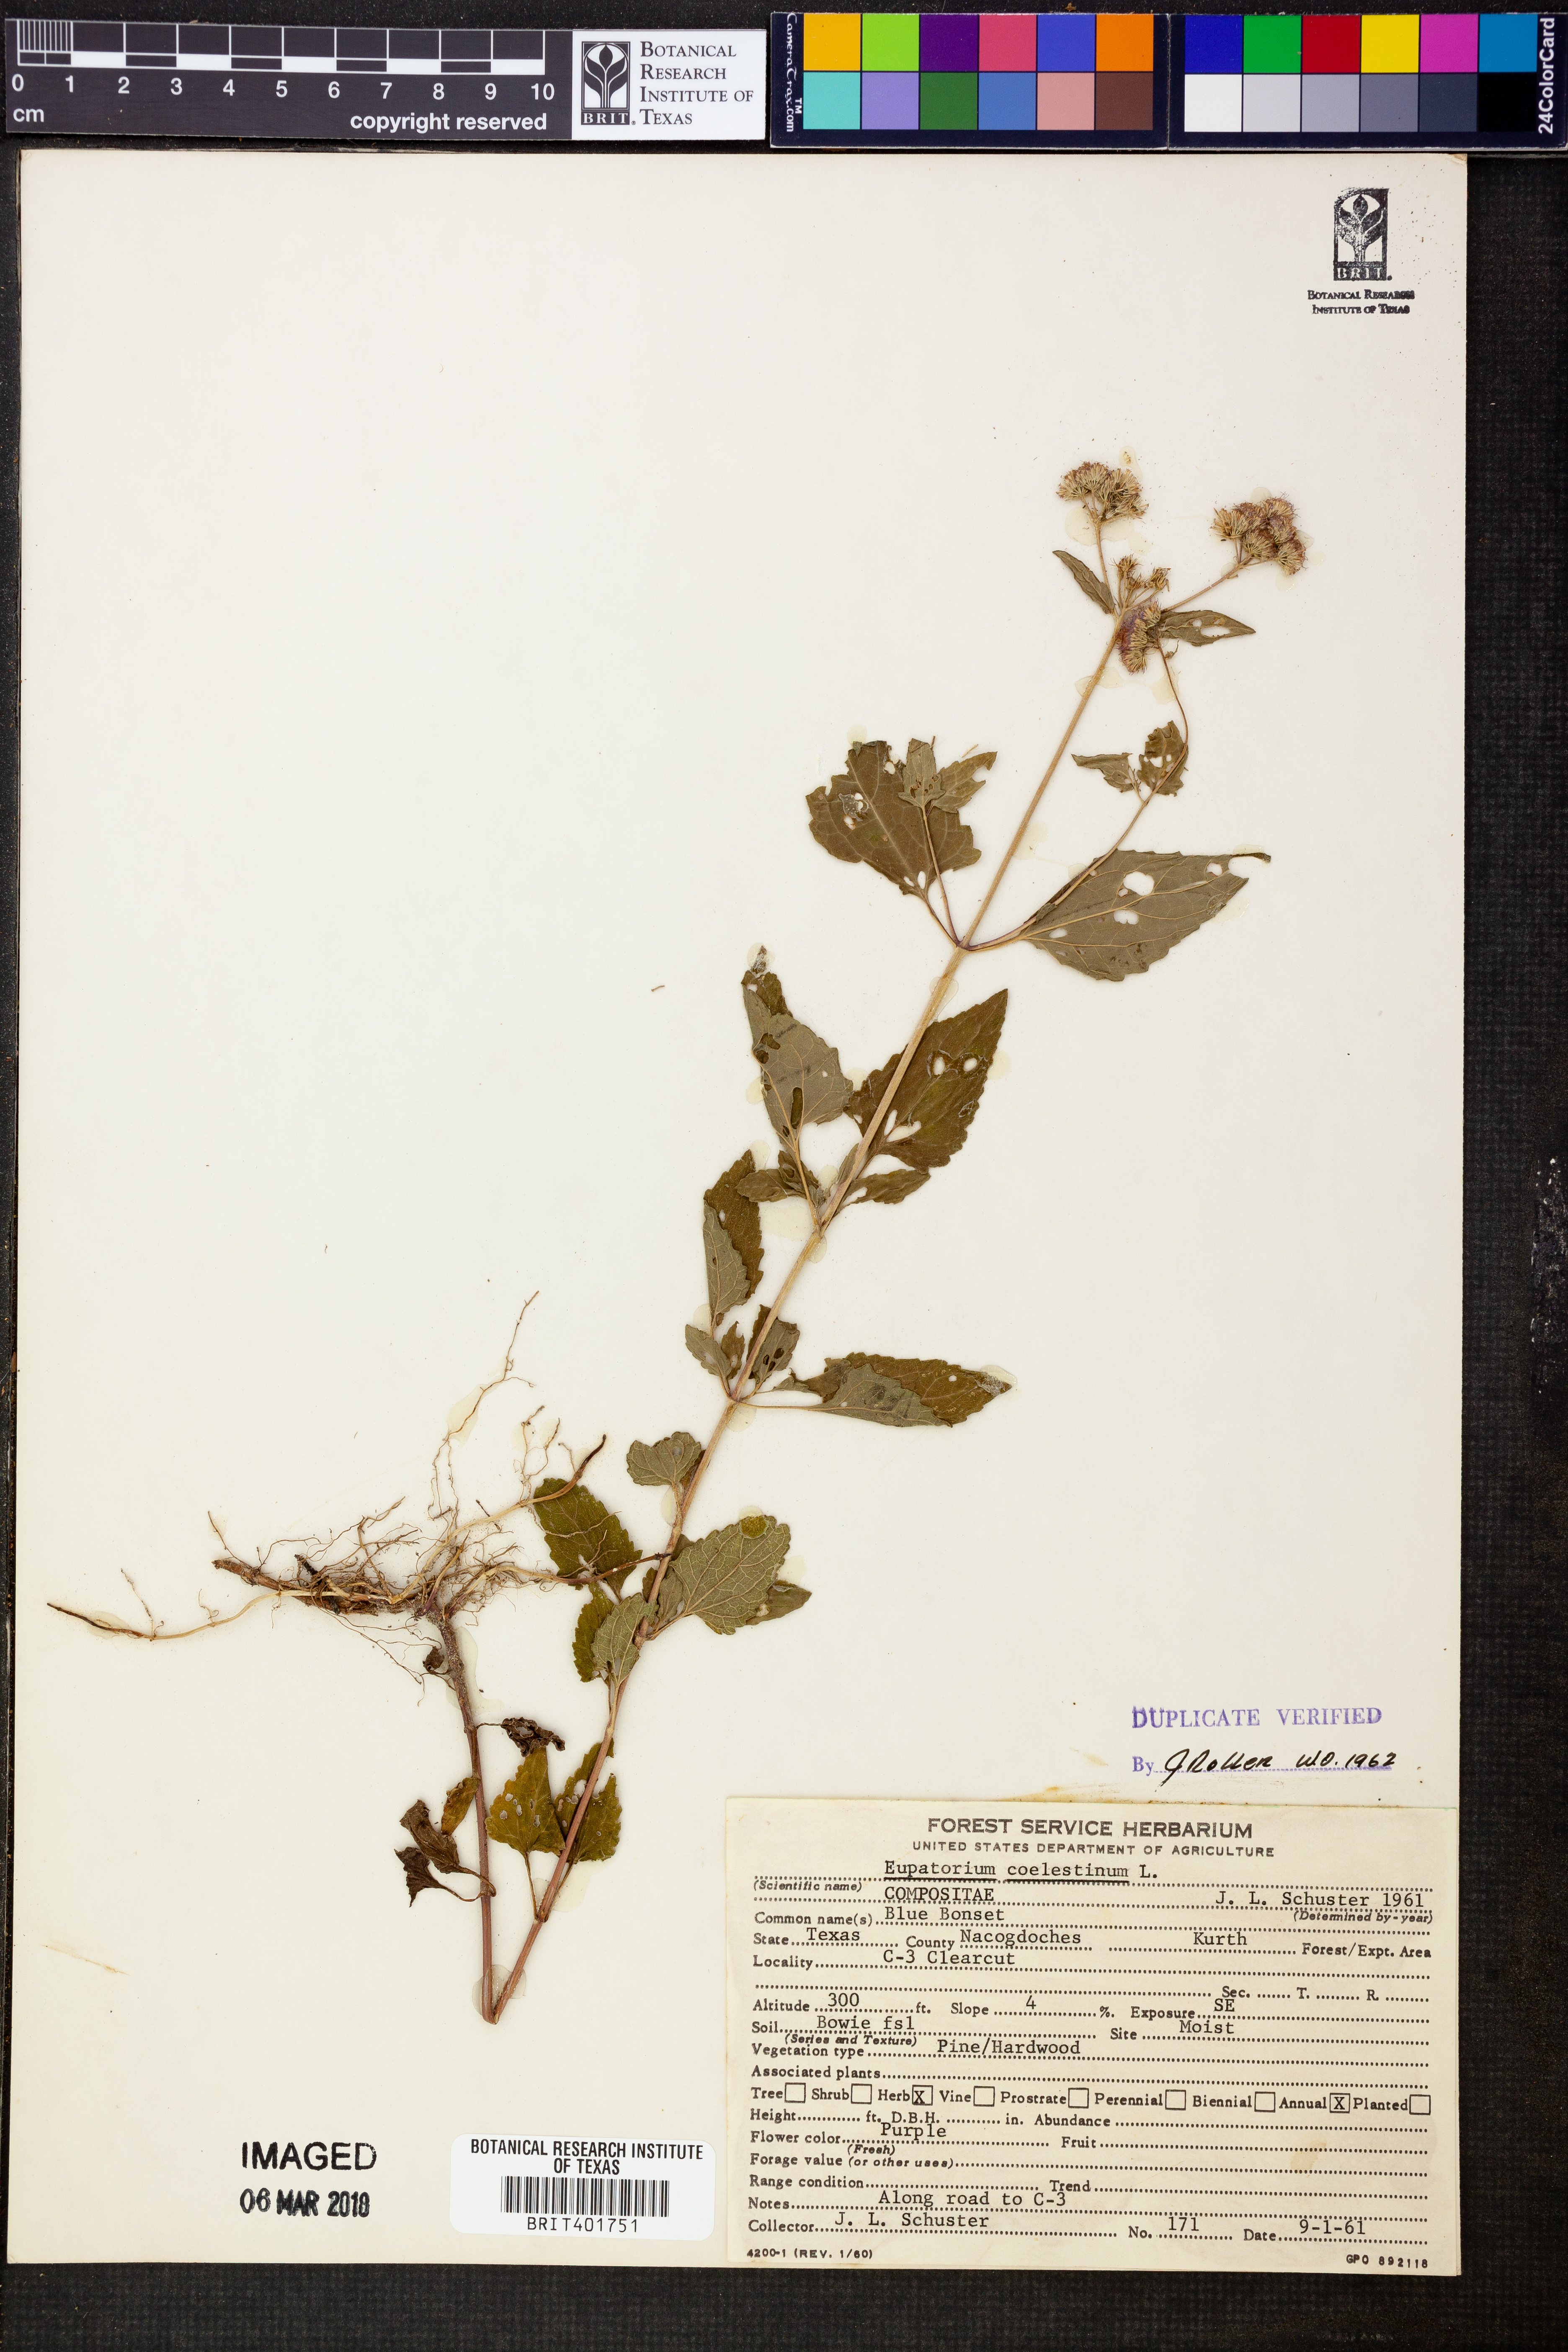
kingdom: Plantae
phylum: Tracheophyta
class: Magnoliopsida
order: Asterales
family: Asteraceae
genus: Conoclinium
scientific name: Conoclinium coelestinum
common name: Blue mistflower
